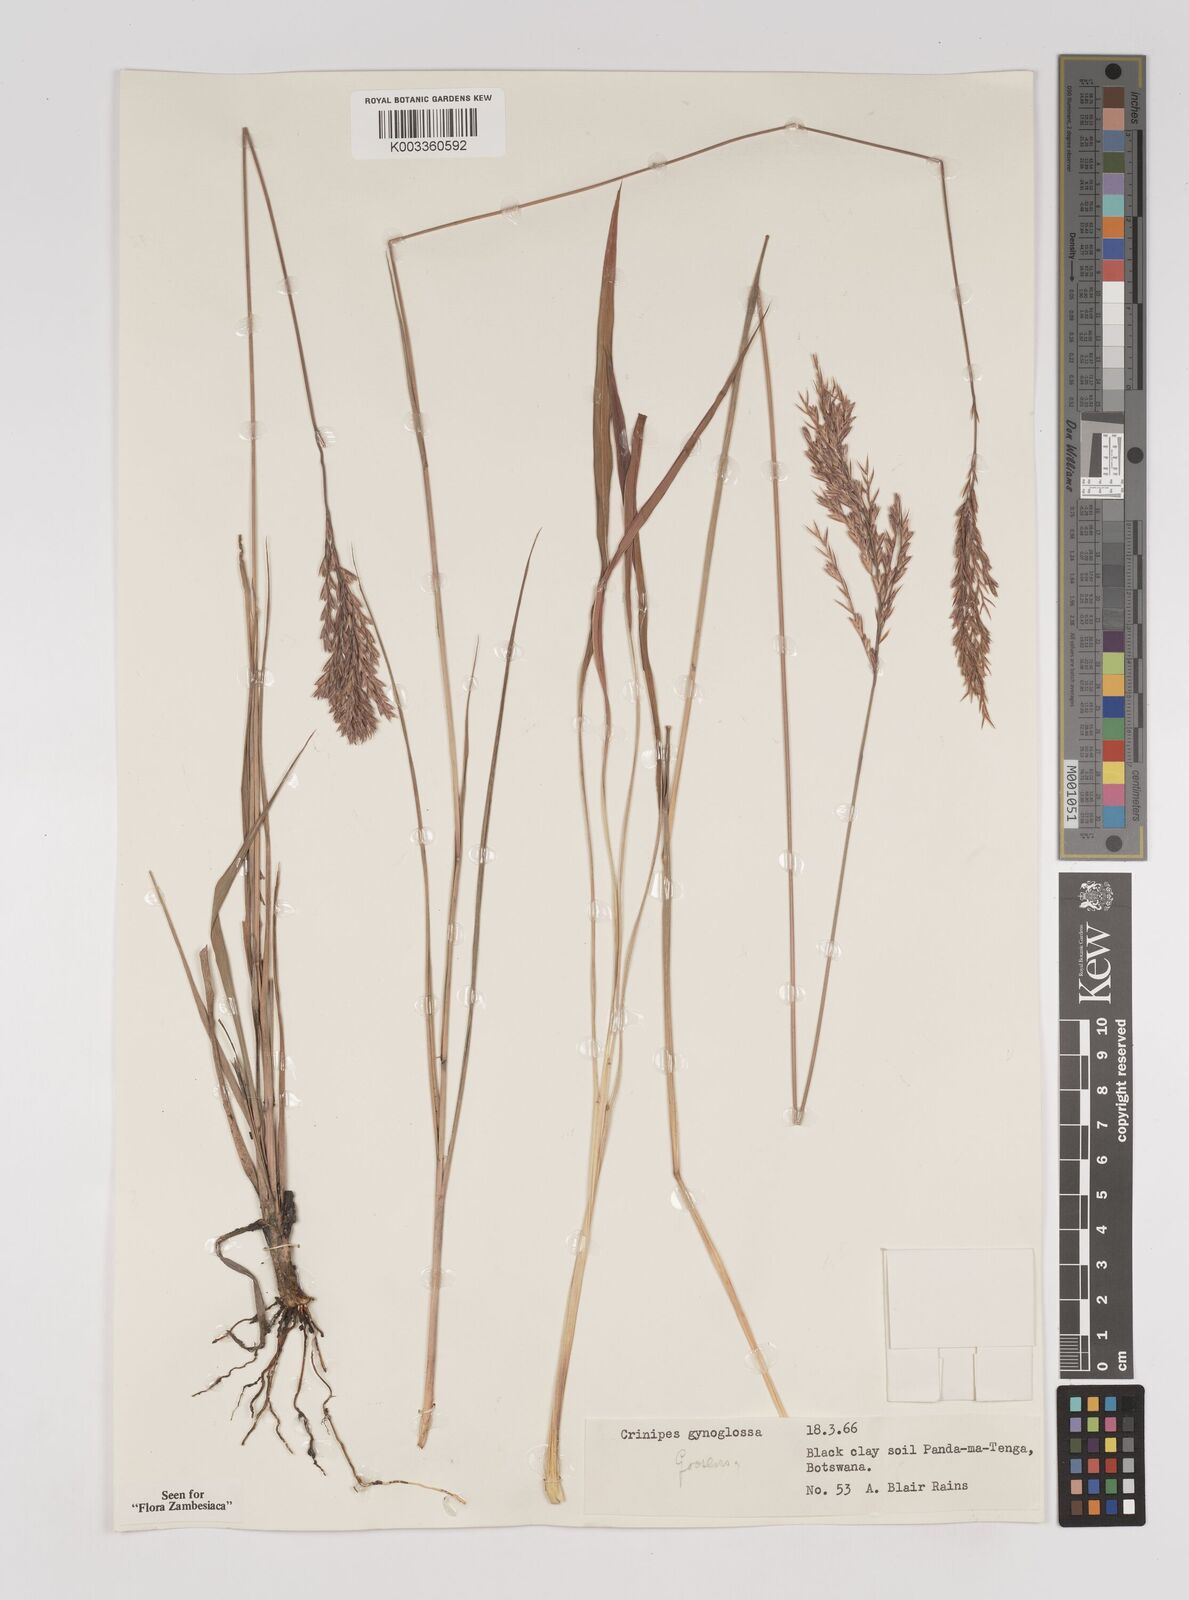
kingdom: Plantae
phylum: Tracheophyta
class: Liliopsida
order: Poales
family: Poaceae
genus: Bewsia
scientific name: Bewsia
